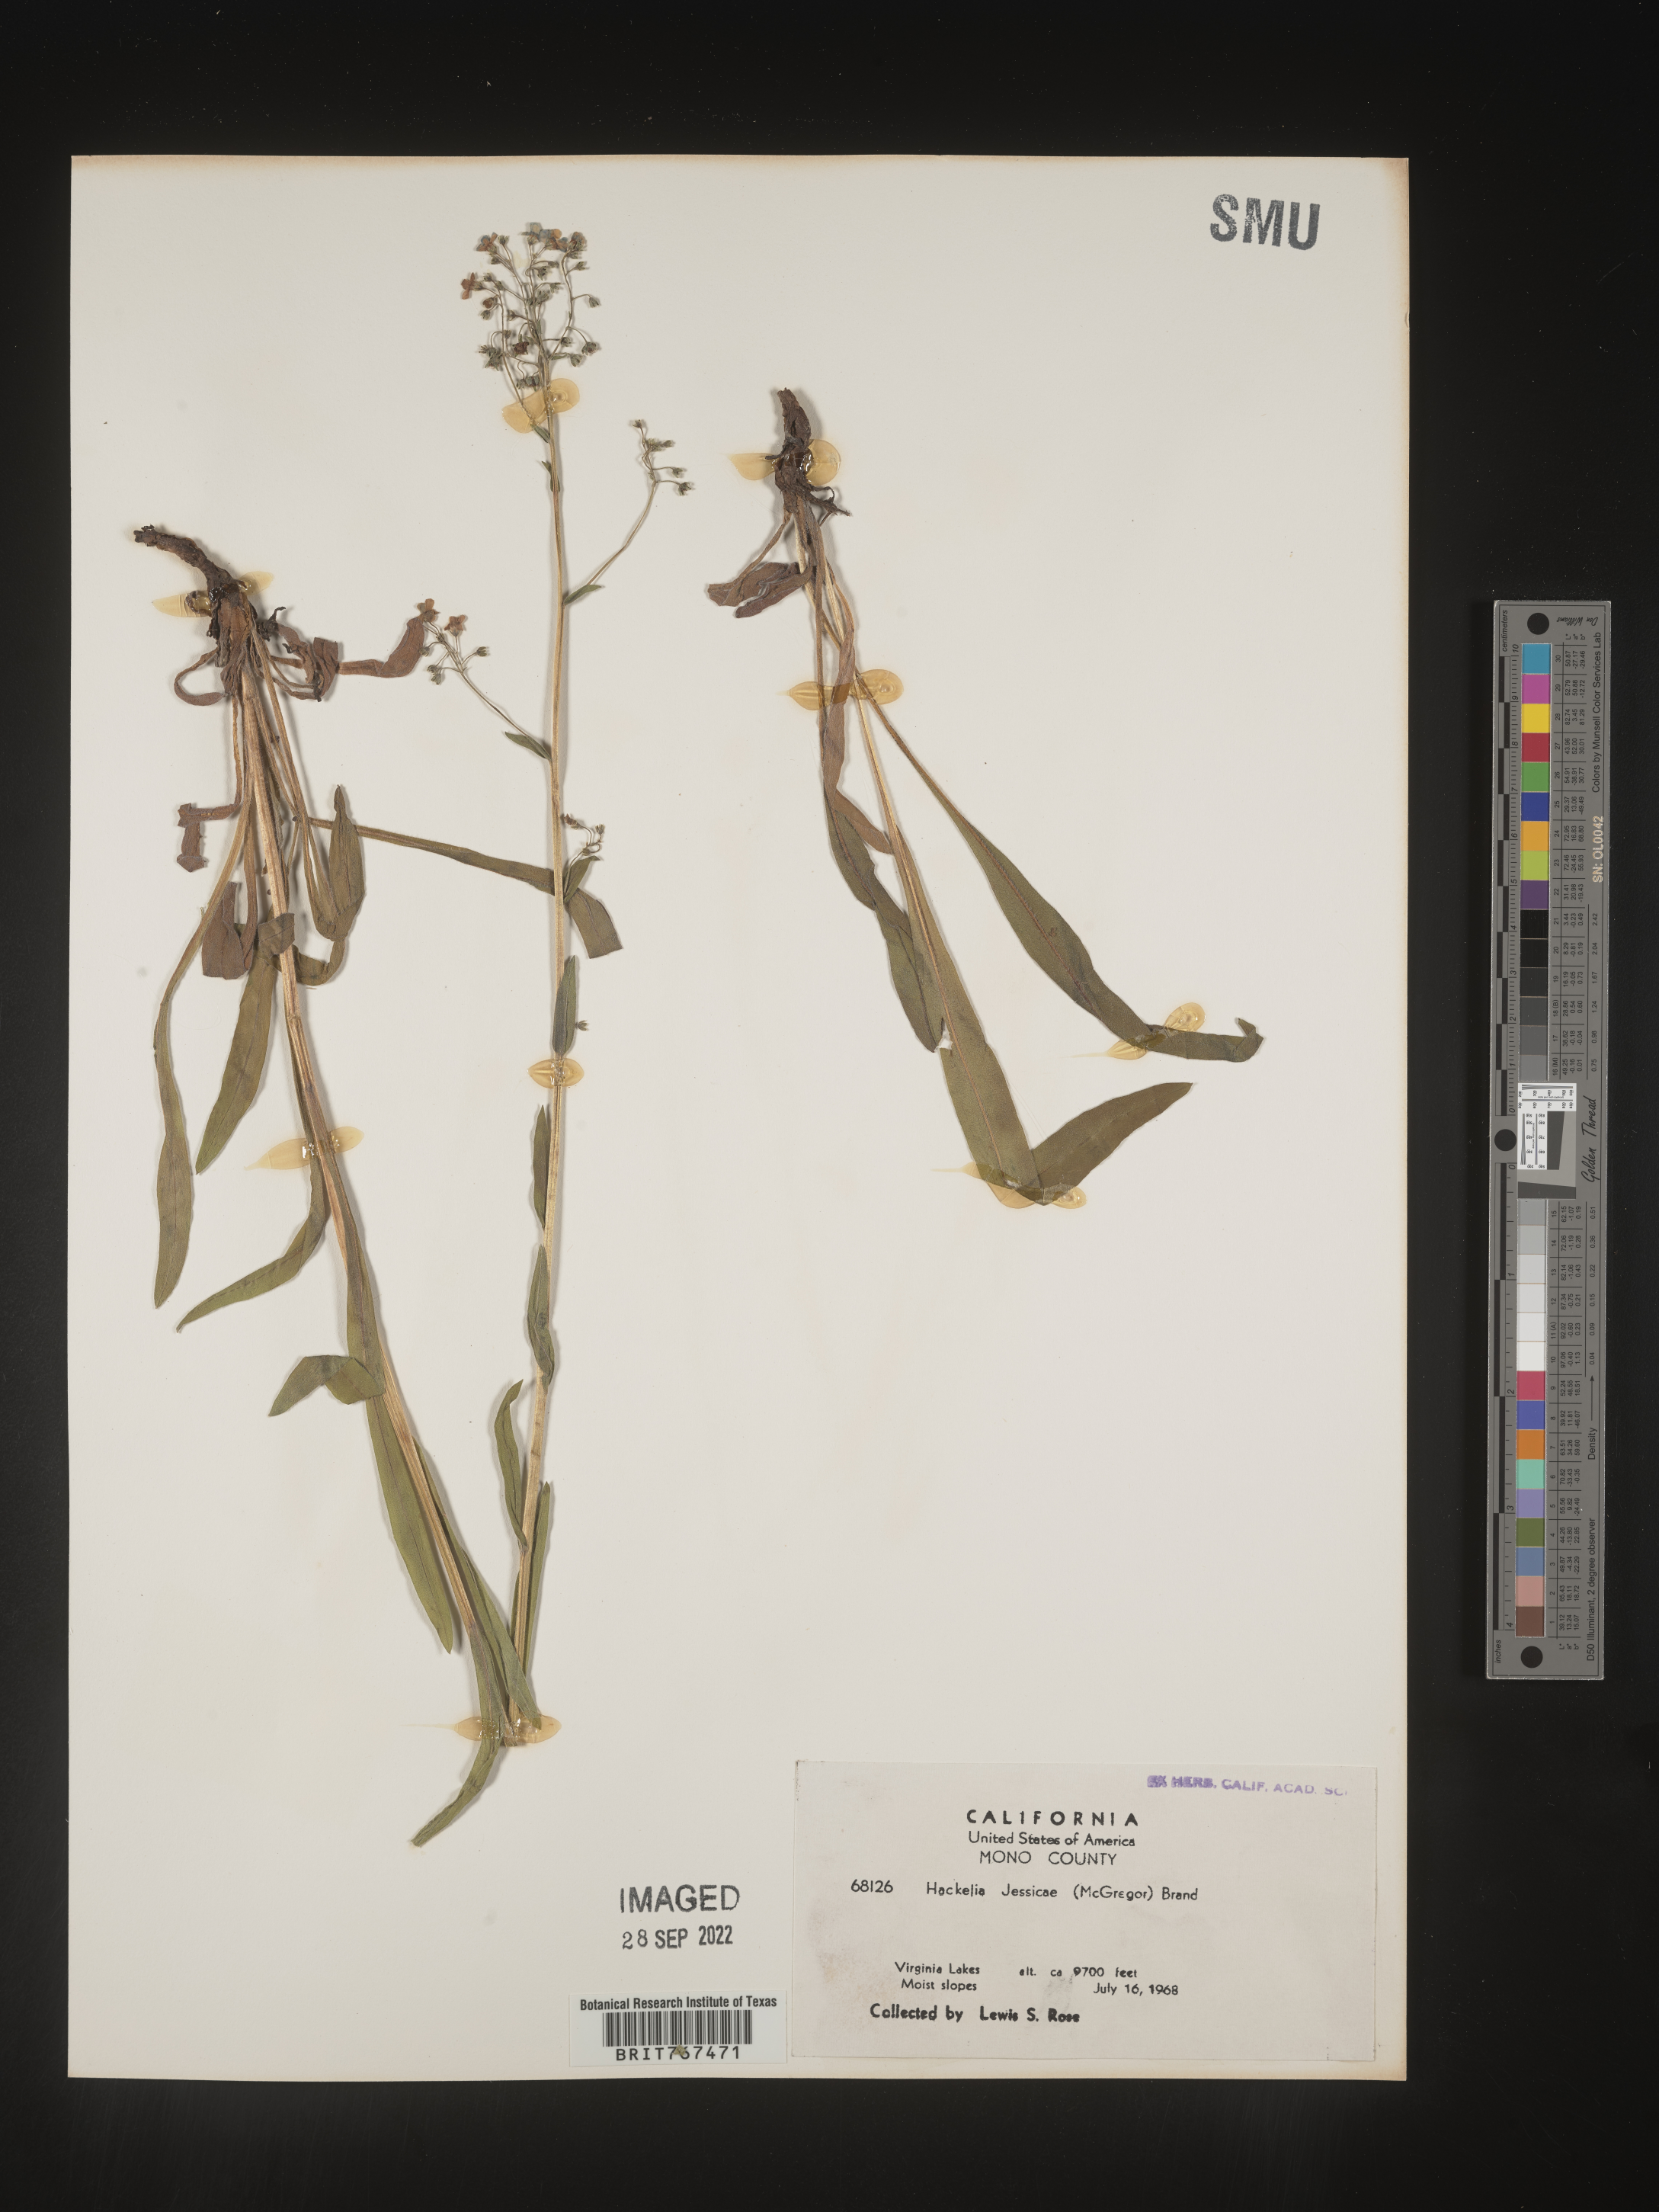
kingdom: Plantae
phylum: Tracheophyta
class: Magnoliopsida
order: Boraginales
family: Boraginaceae
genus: Hackelia
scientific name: Hackelia micrantha
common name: Meadow stickseed
